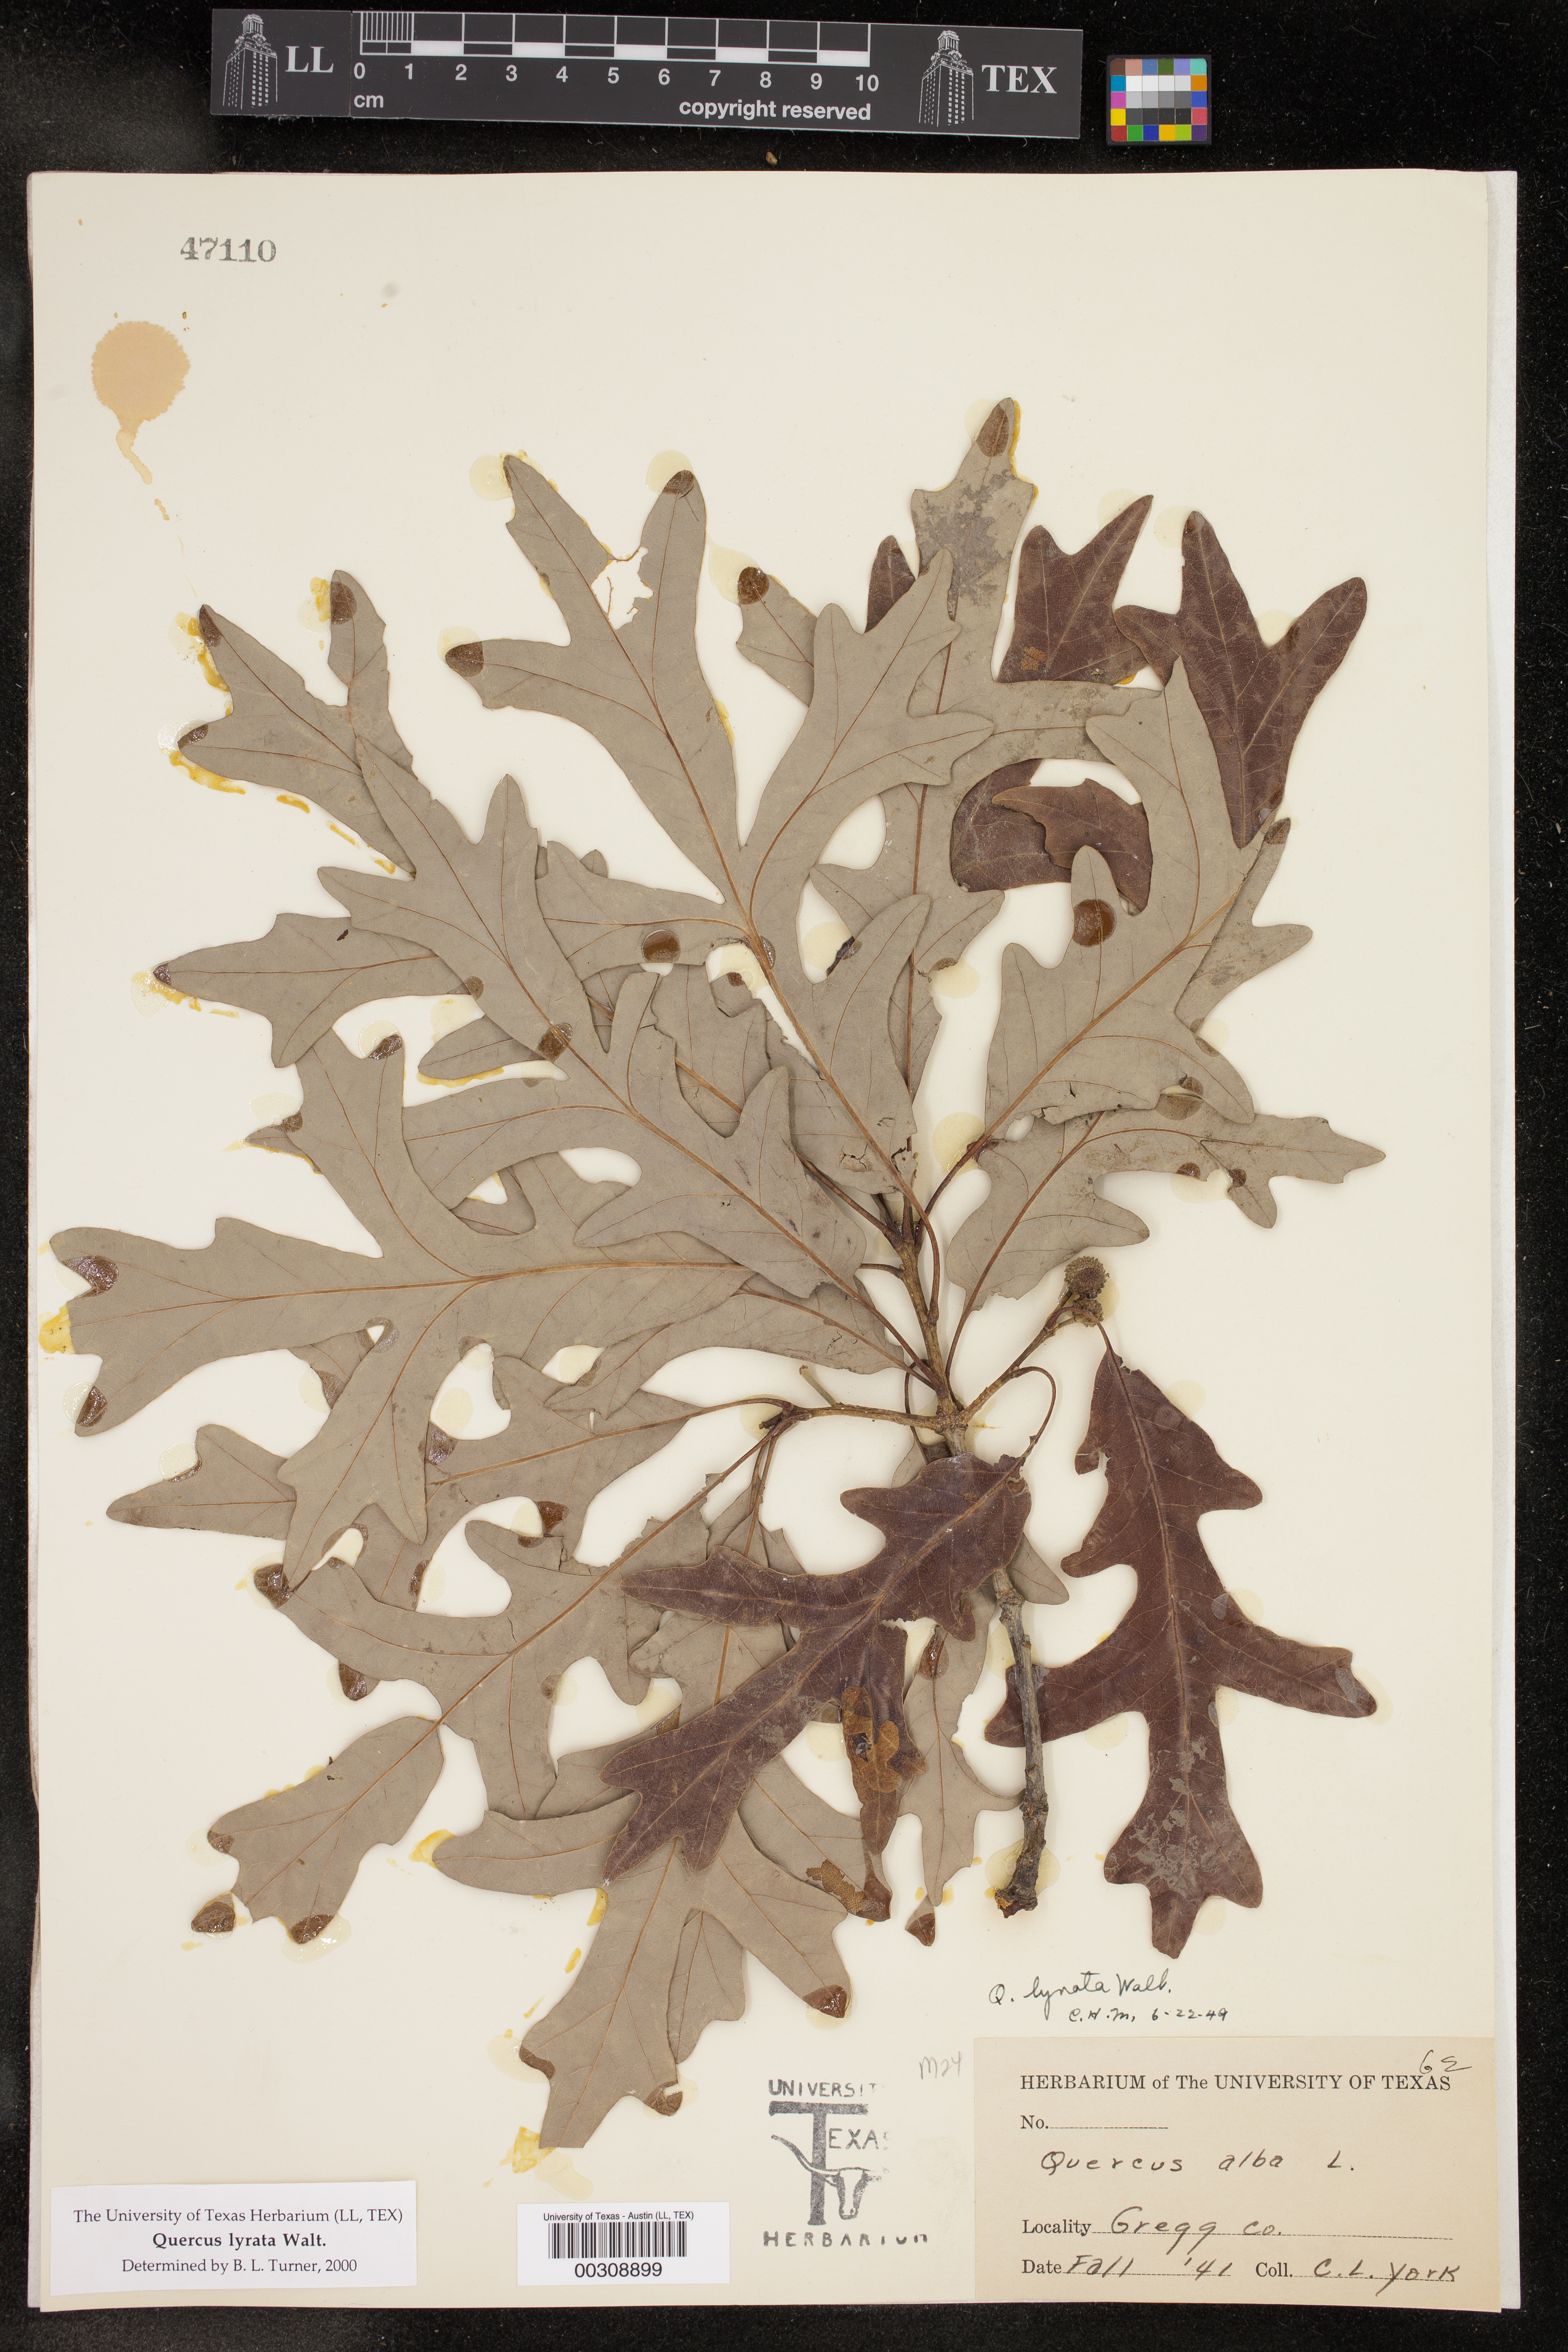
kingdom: Plantae
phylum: Tracheophyta
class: Magnoliopsida
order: Fagales
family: Fagaceae
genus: Quercus
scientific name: Quercus lyrata
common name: Overcup oak
